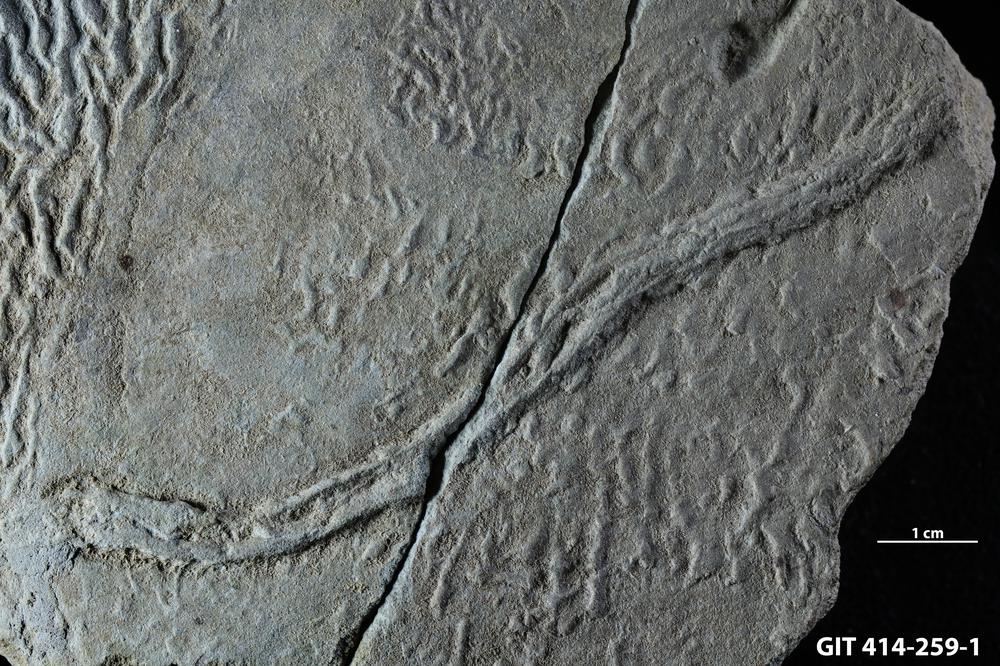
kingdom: Plantae
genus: Halopoa
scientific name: Halopoa imbricata
